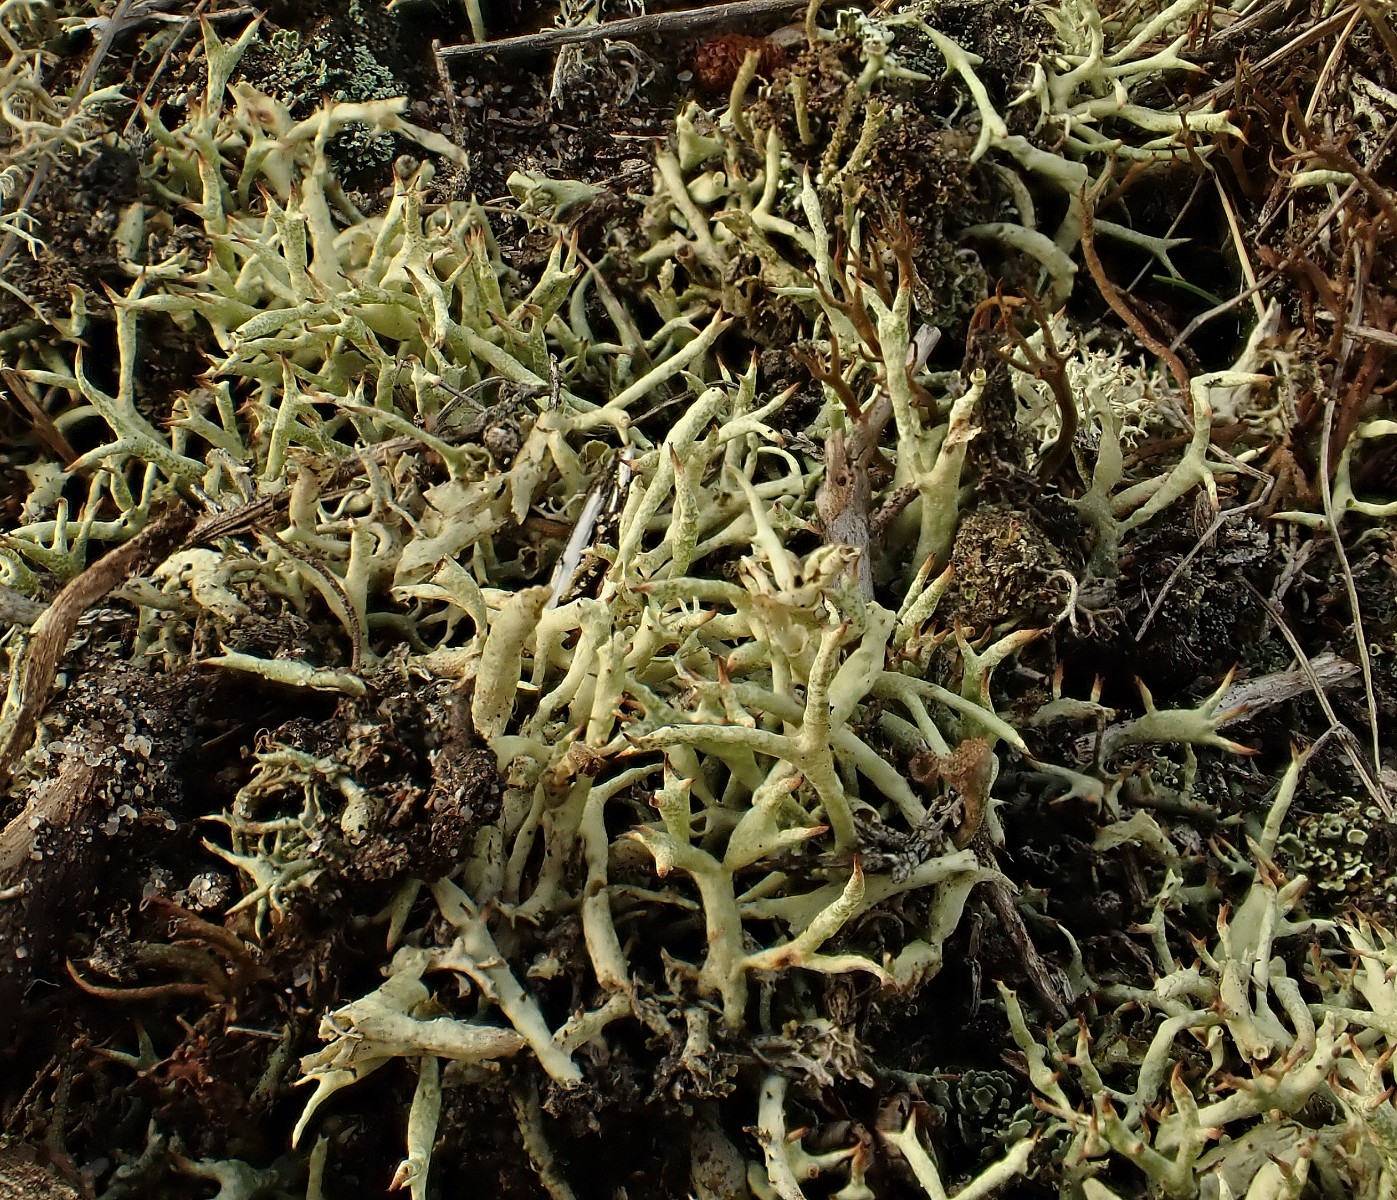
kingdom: Fungi
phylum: Ascomycota
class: Lecanoromycetes
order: Lecanorales
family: Cladoniaceae
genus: Cladonia
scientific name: Cladonia uncialis
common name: pigget bægerlav
